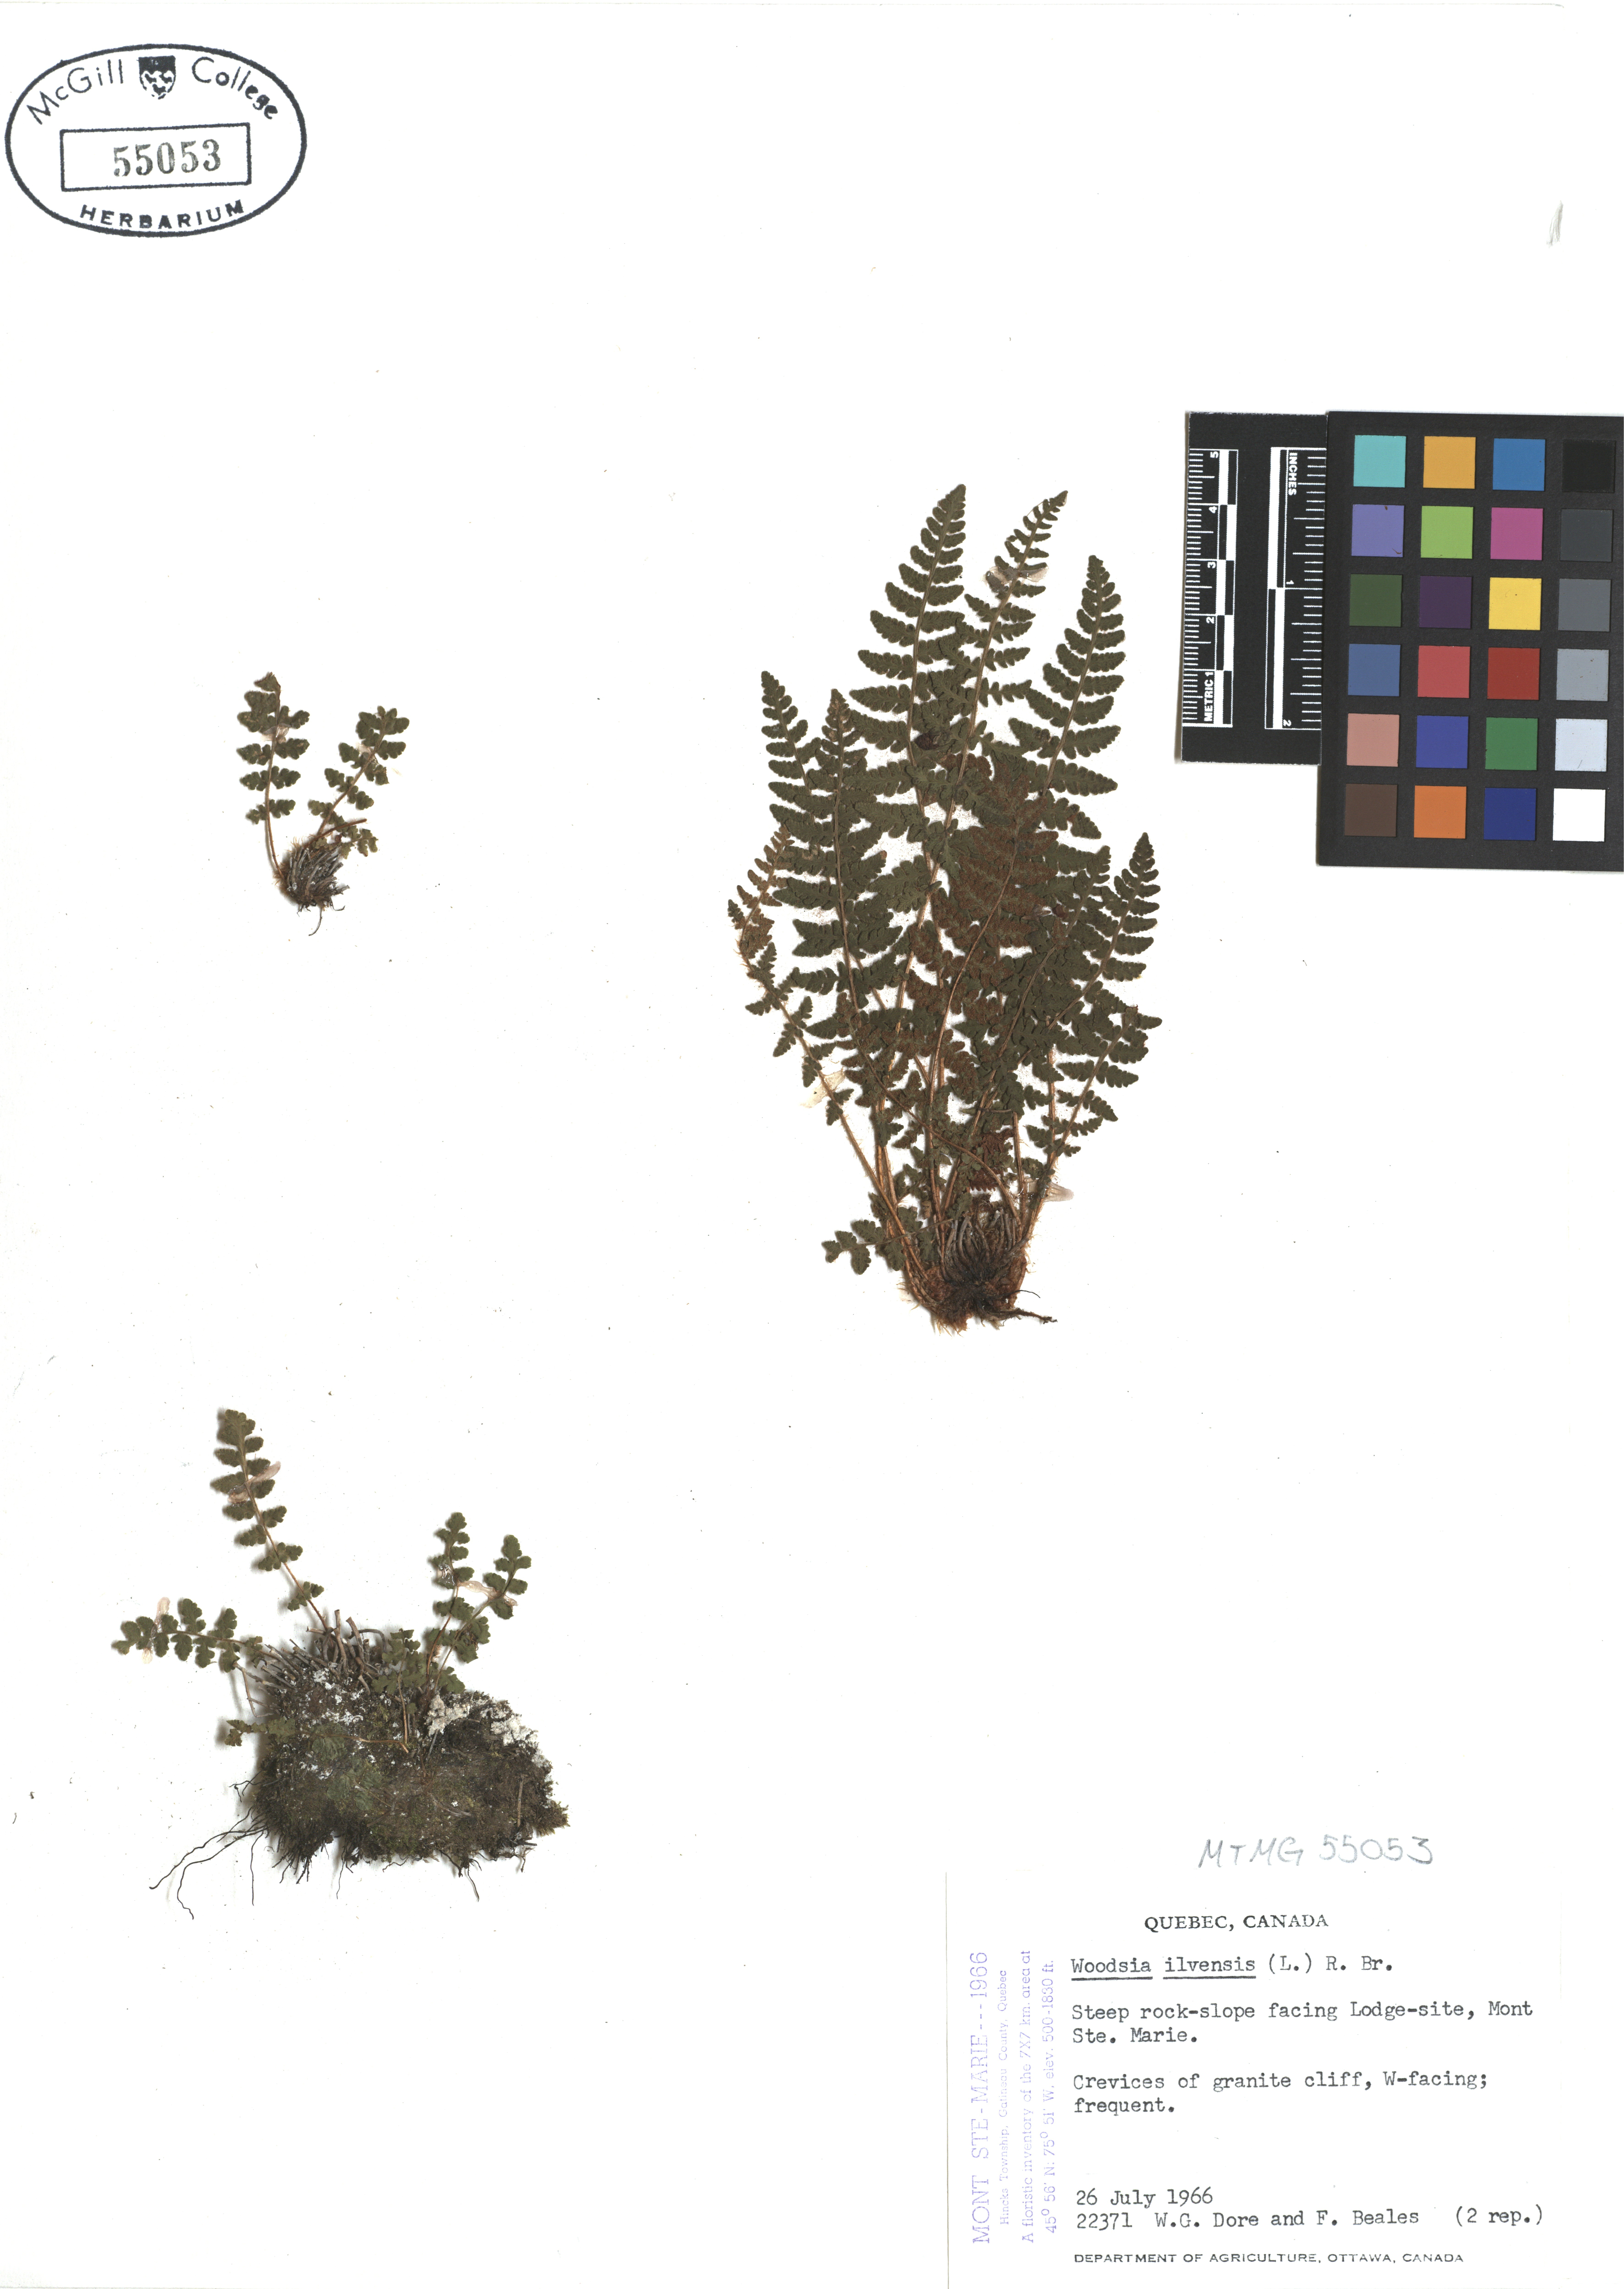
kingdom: Plantae
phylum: Tracheophyta
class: Polypodiopsida
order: Polypodiales
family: Woodsiaceae
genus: Woodsia
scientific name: Woodsia ilvensis
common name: Fragrant woodsia
